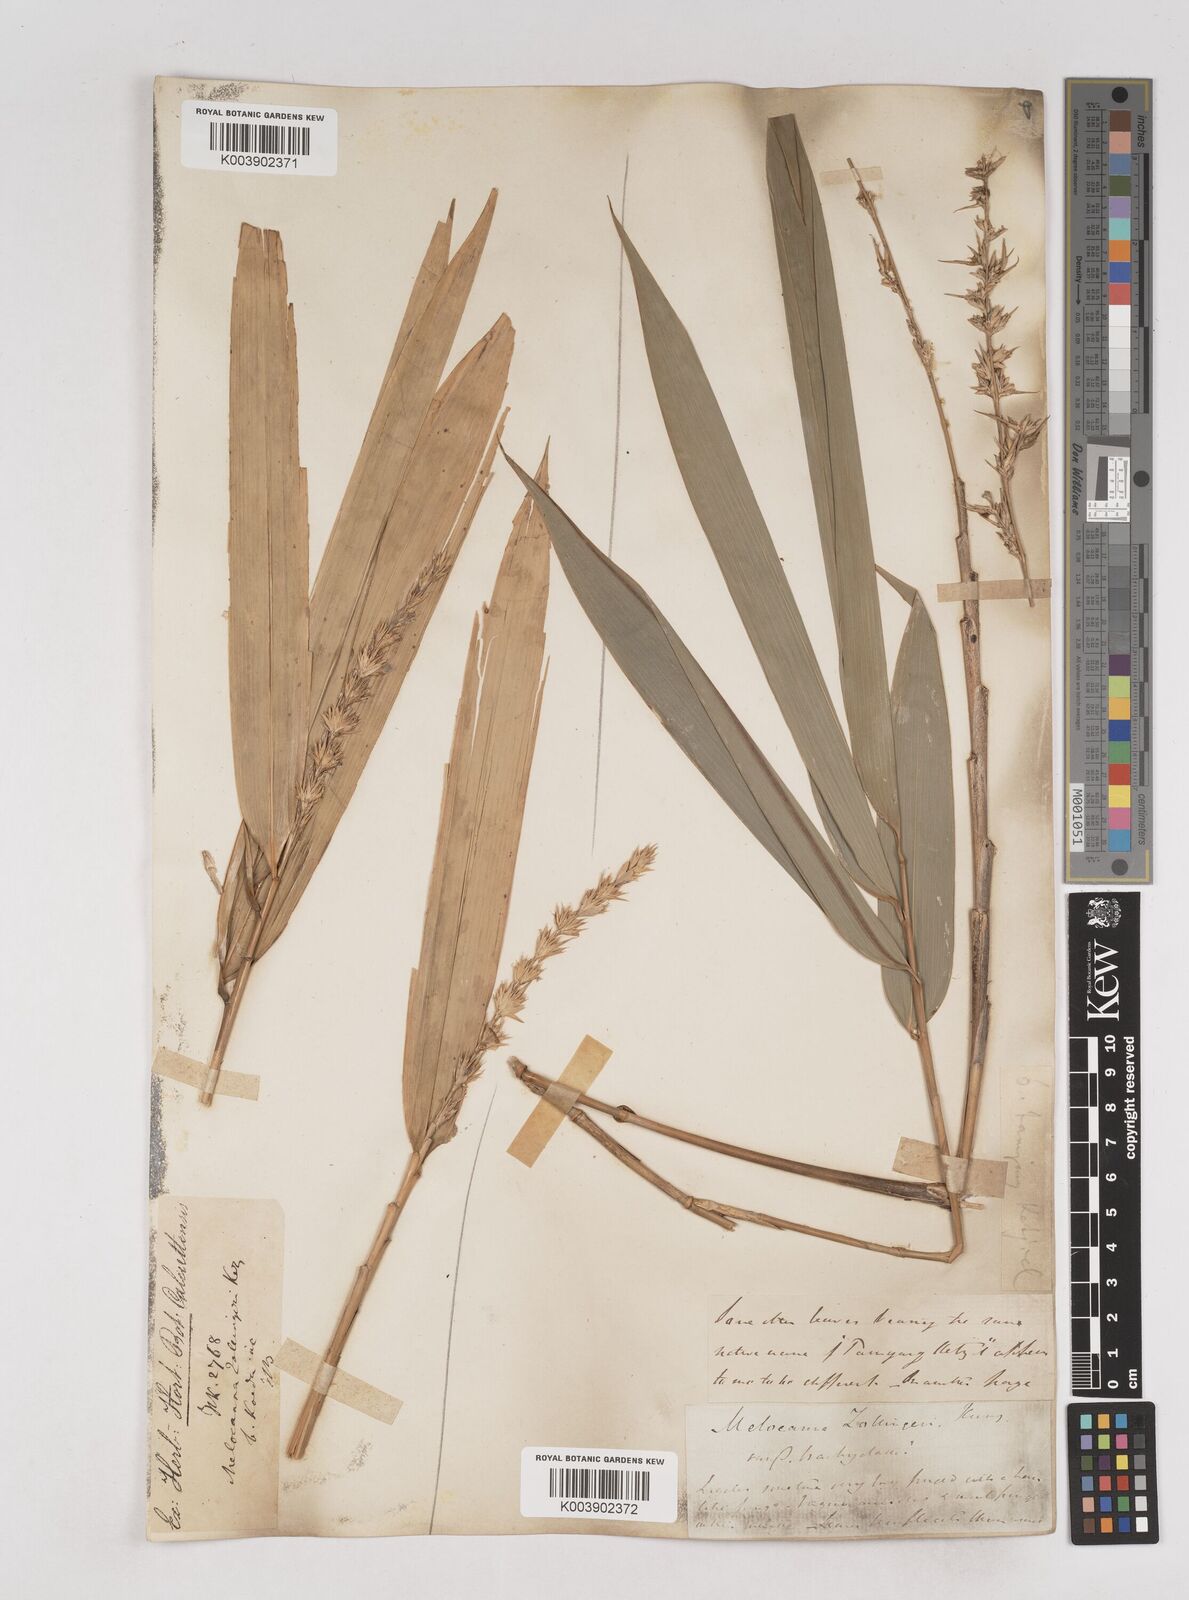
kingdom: Plantae
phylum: Tracheophyta
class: Liliopsida
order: Poales
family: Poaceae
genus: Schizostachyum
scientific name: Schizostachyum zollingeri
